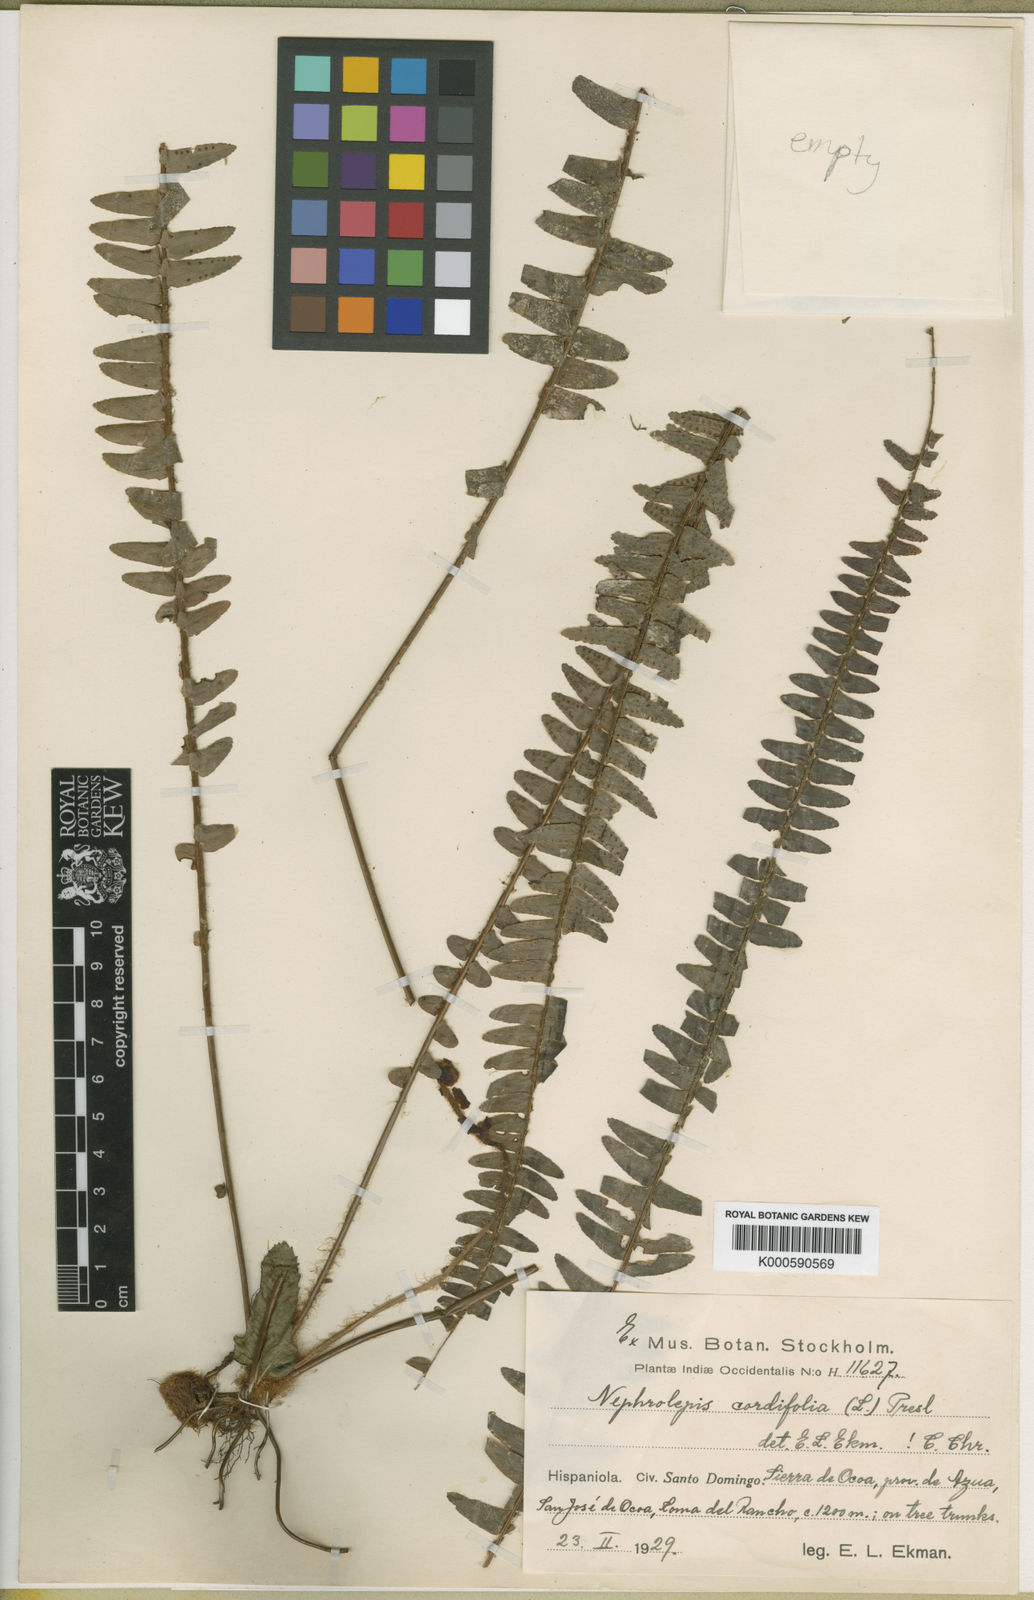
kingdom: Plantae
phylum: Tracheophyta
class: Polypodiopsida
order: Polypodiales
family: Nephrolepidaceae
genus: Nephrolepis
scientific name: Nephrolepis cordifolia
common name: Narrow swordfern
